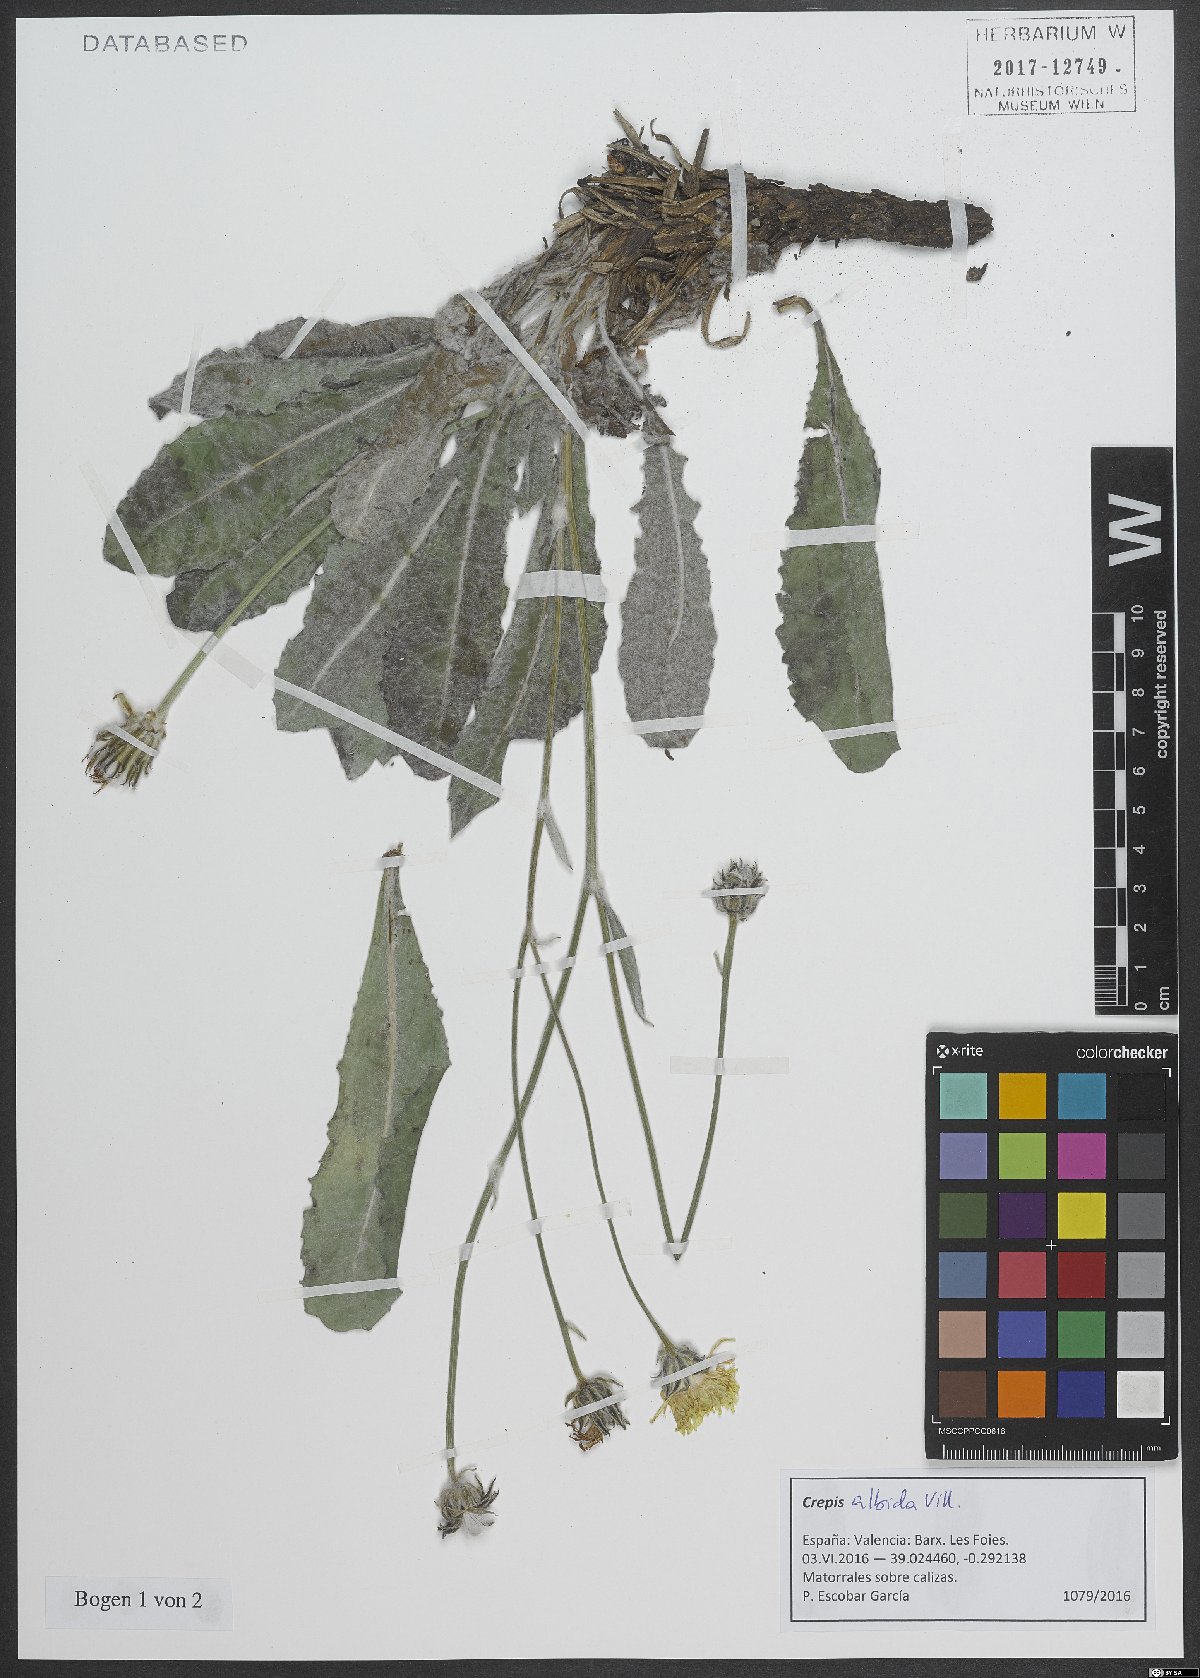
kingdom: Plantae
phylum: Tracheophyta
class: Magnoliopsida
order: Asterales
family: Asteraceae
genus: Crepis
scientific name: Crepis albida
